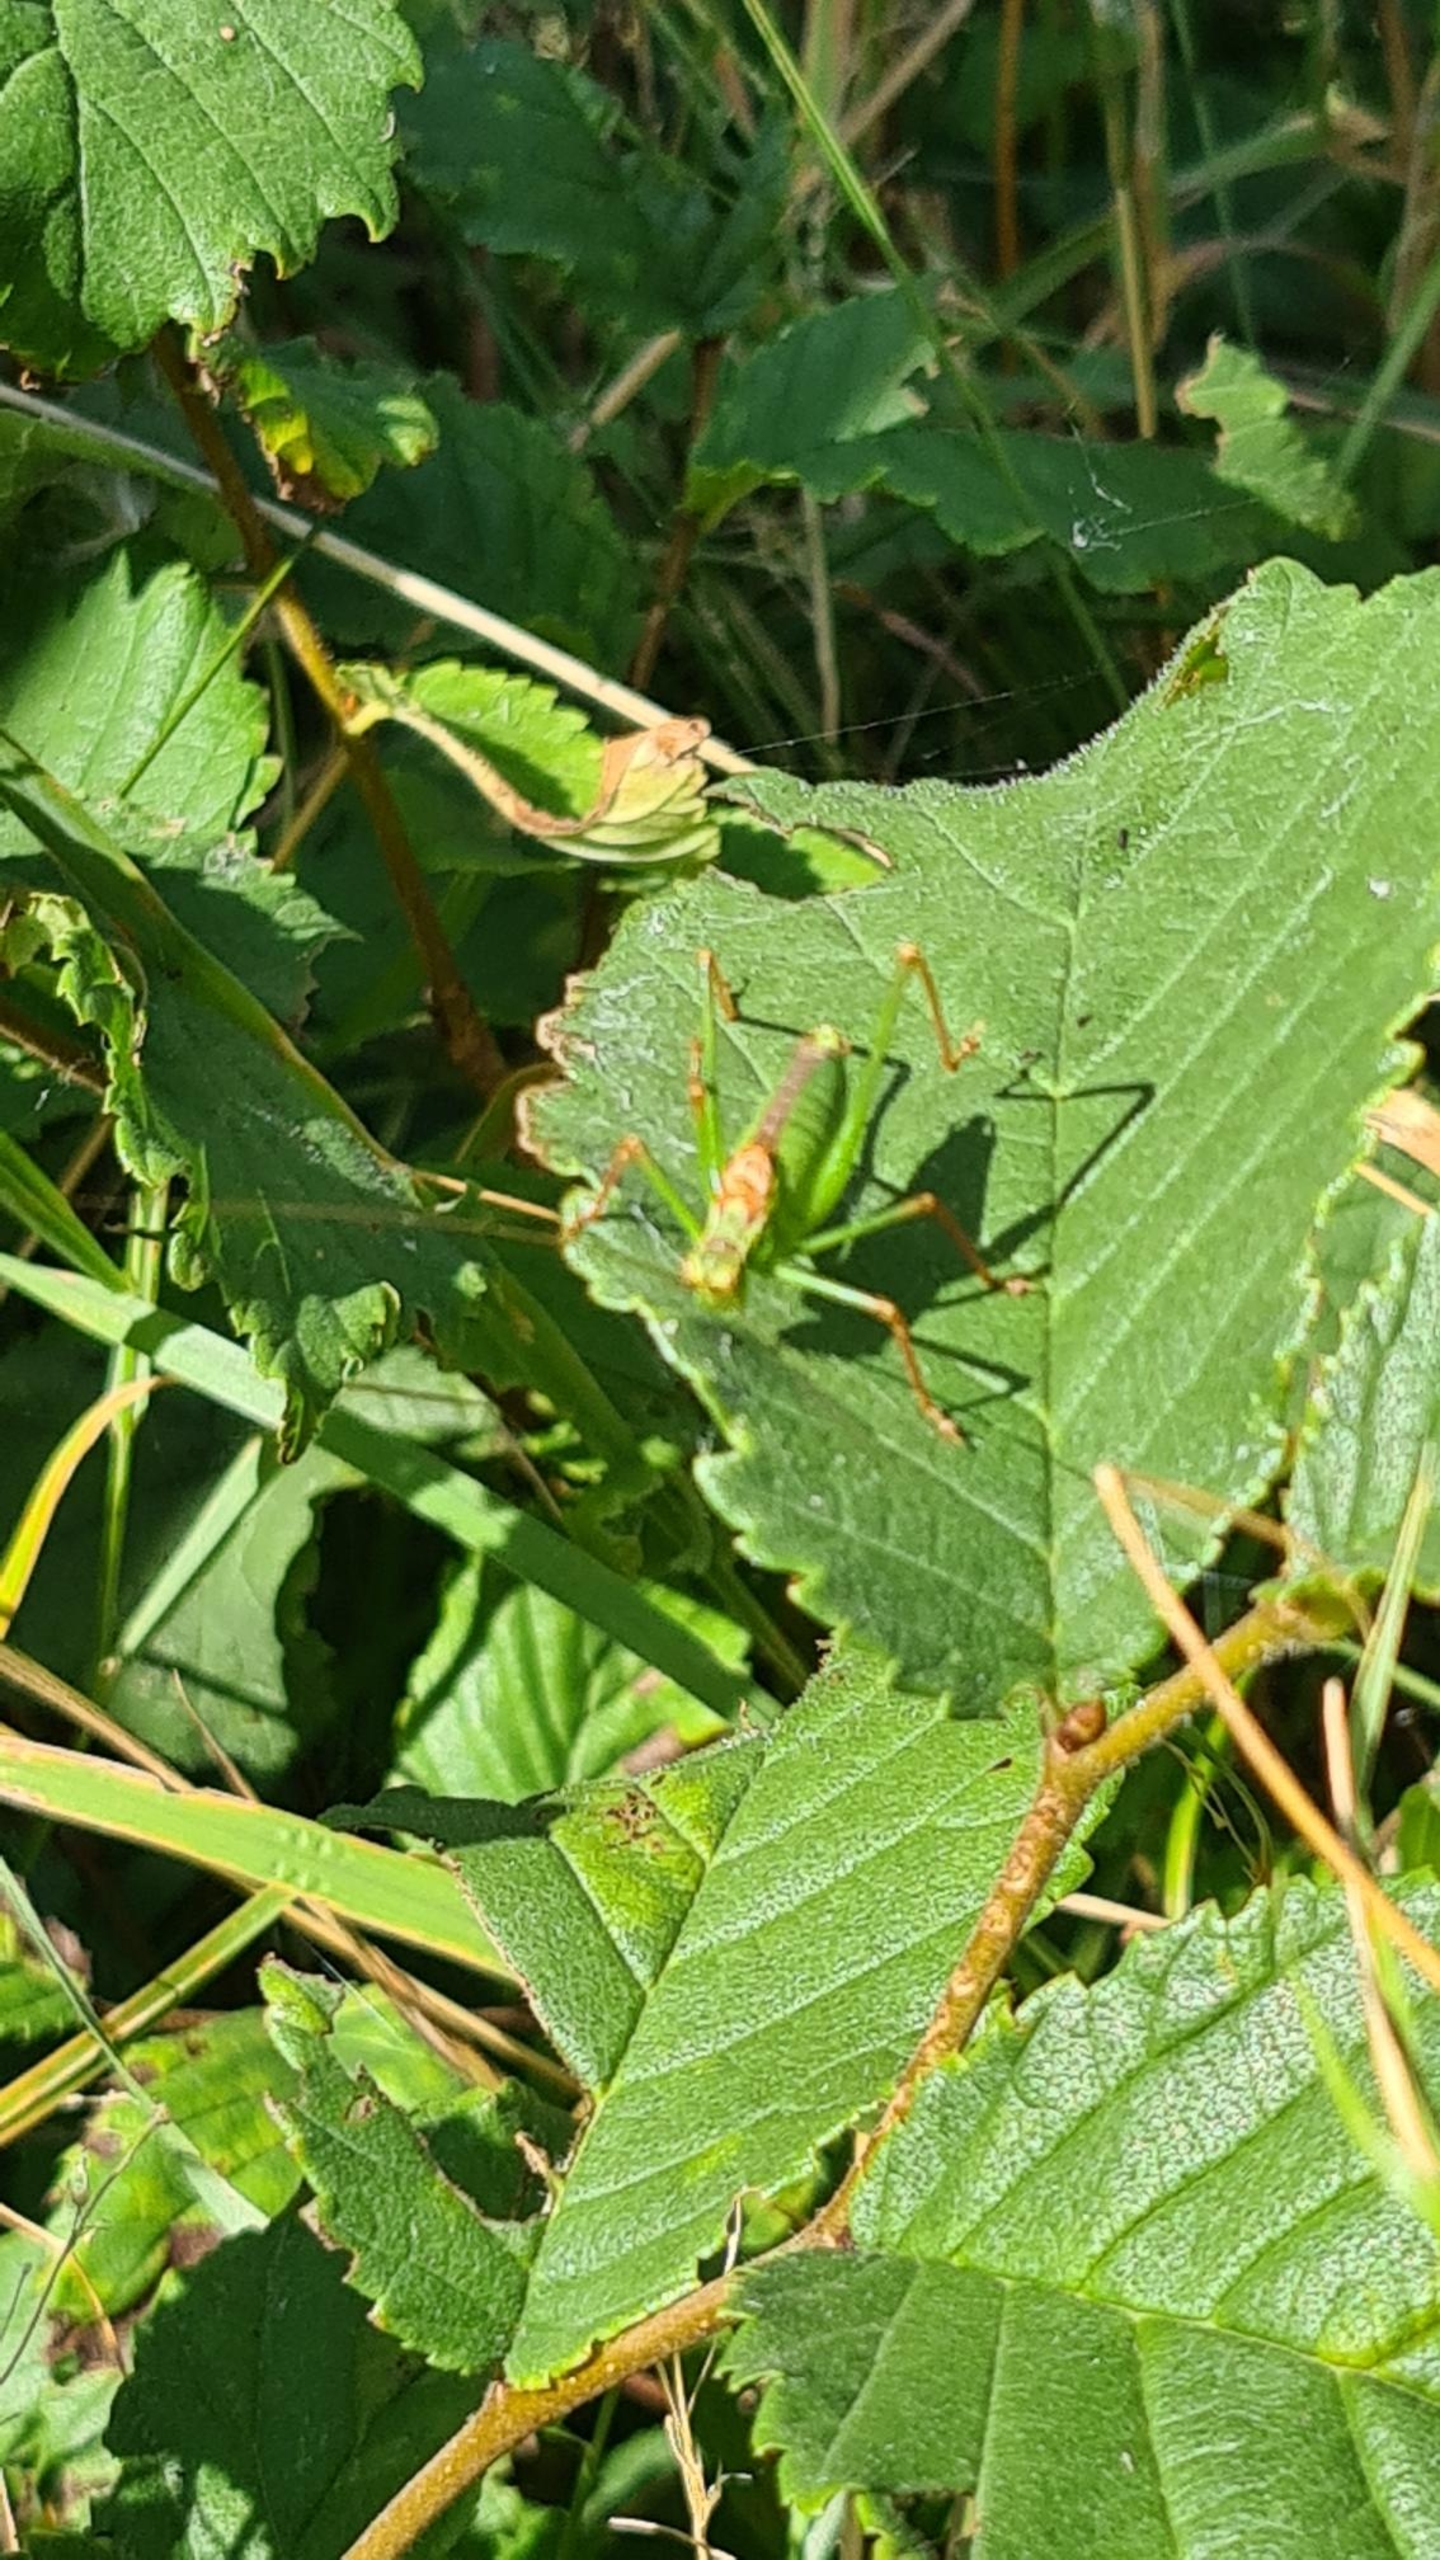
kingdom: Animalia
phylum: Arthropoda
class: Insecta
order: Orthoptera
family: Tettigoniidae
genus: Leptophyes
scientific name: Leptophyes punctatissima
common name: Krumknivgræshoppe
